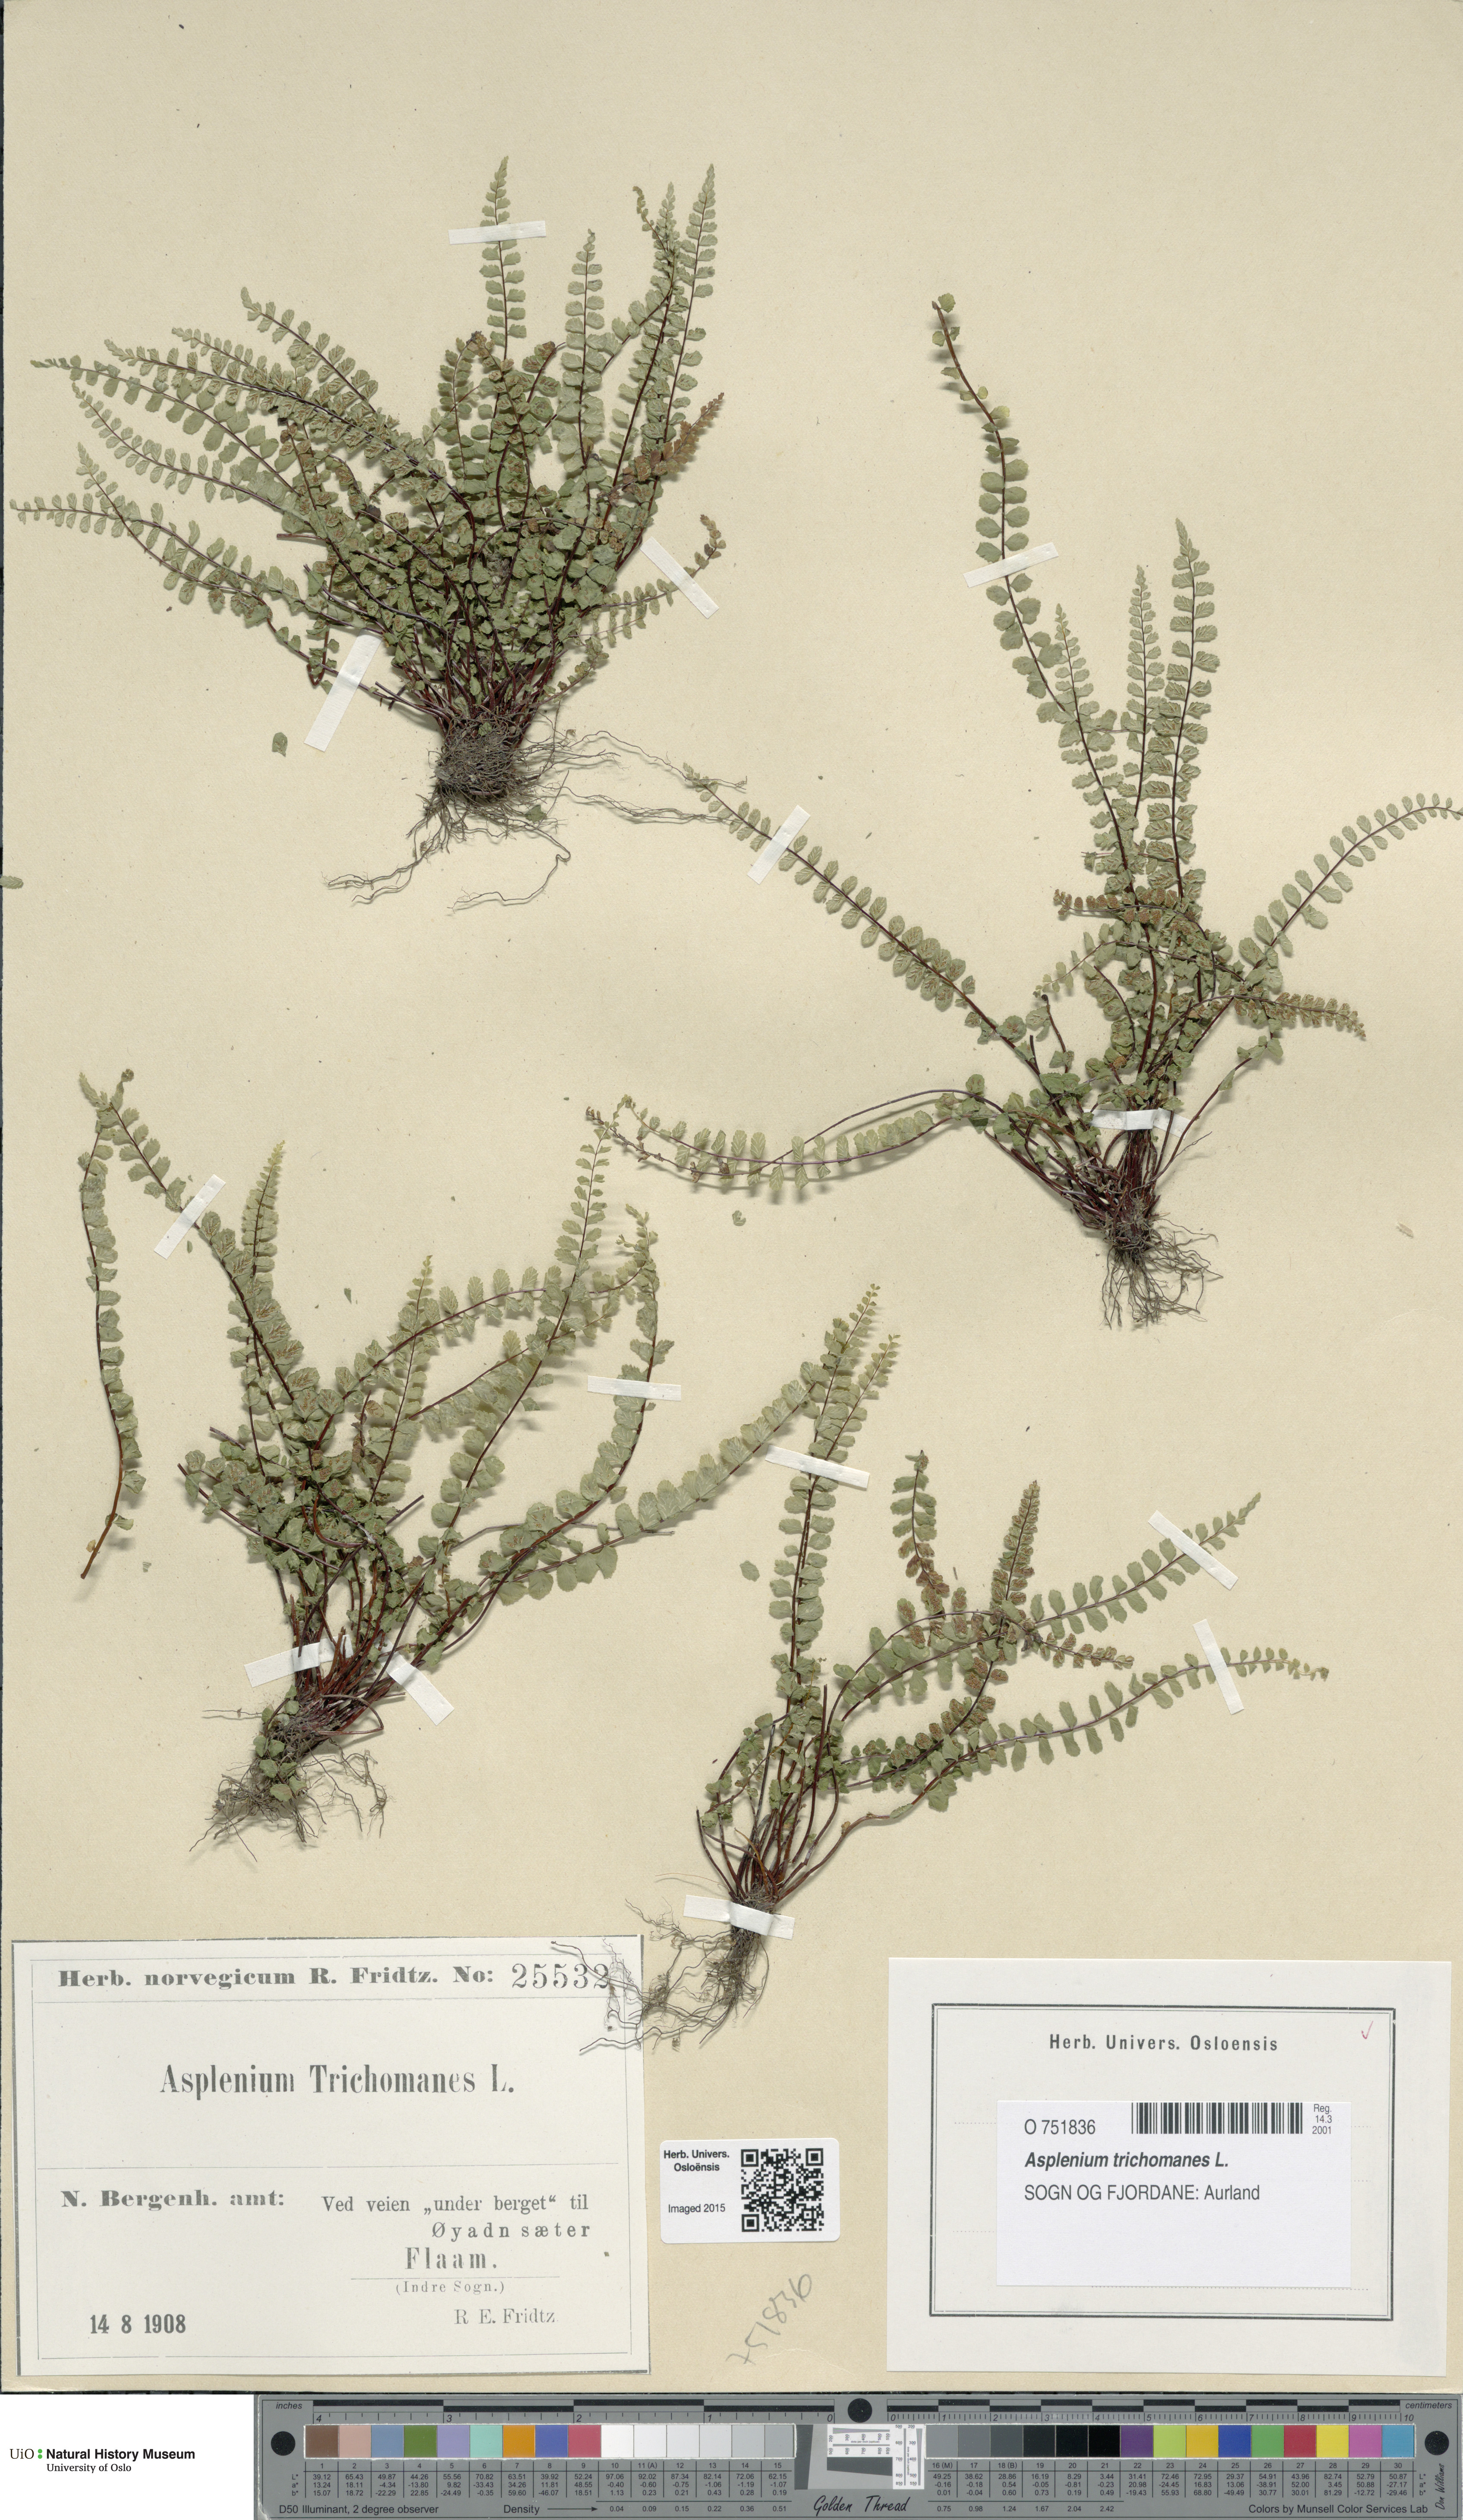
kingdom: Plantae
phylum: Tracheophyta
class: Polypodiopsida
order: Polypodiales
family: Aspleniaceae
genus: Asplenium
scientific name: Asplenium trichomanes
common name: Maidenhair spleenwort
